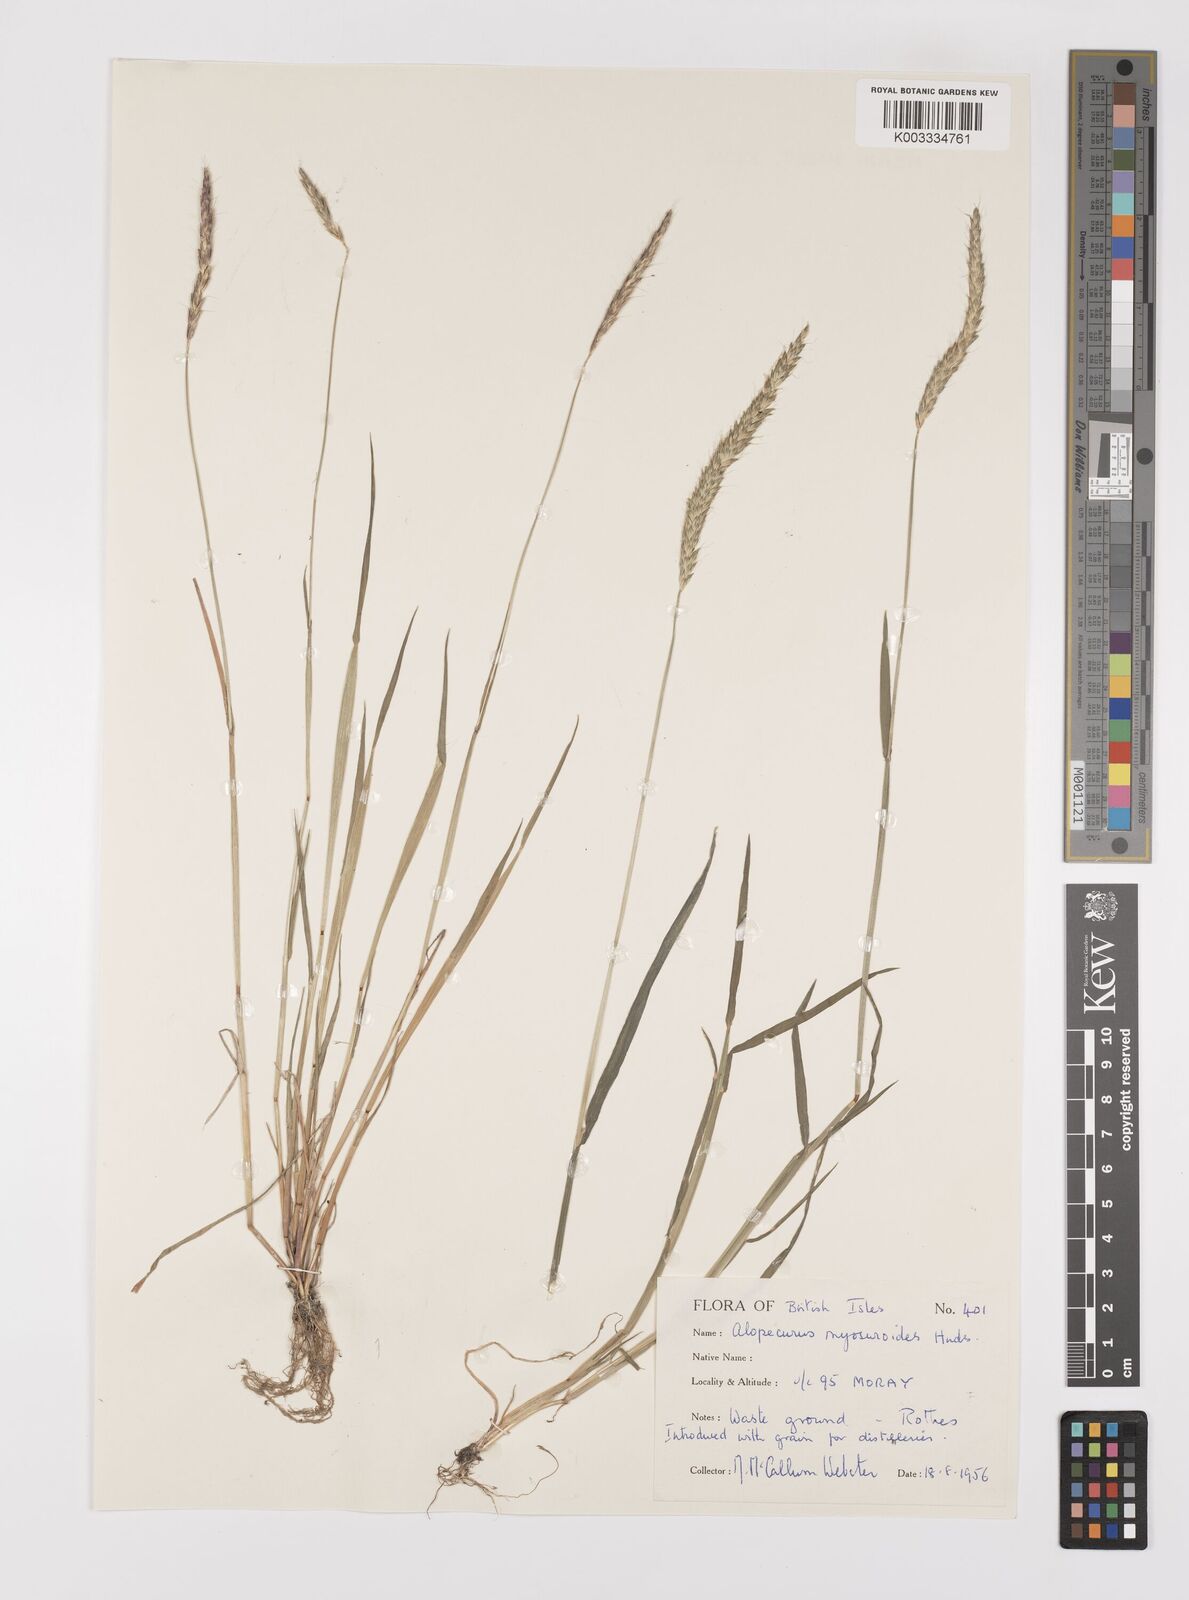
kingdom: Plantae
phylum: Tracheophyta
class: Liliopsida
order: Poales
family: Poaceae
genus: Alopecurus
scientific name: Alopecurus myosuroides
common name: Black-grass
